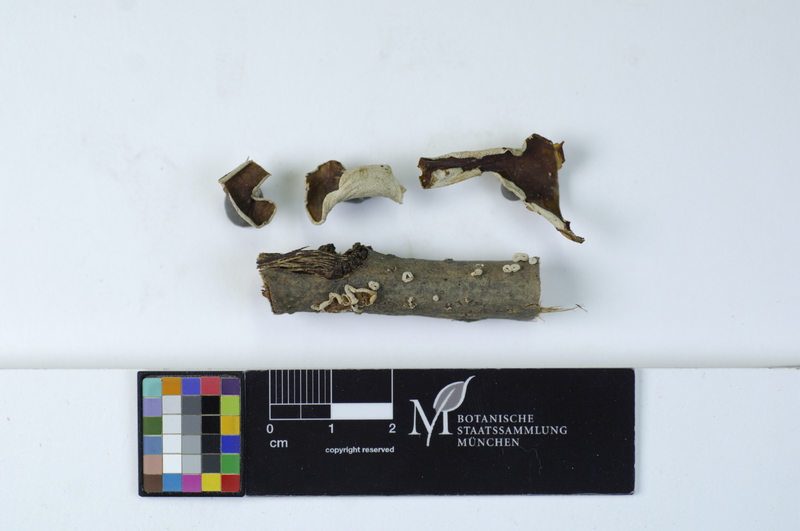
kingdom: Fungi
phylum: Basidiomycota
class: Agaricomycetes
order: Agaricales
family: Schizophyllaceae
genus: Schizophyllum
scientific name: Schizophyllum amplum
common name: Poplar bells
